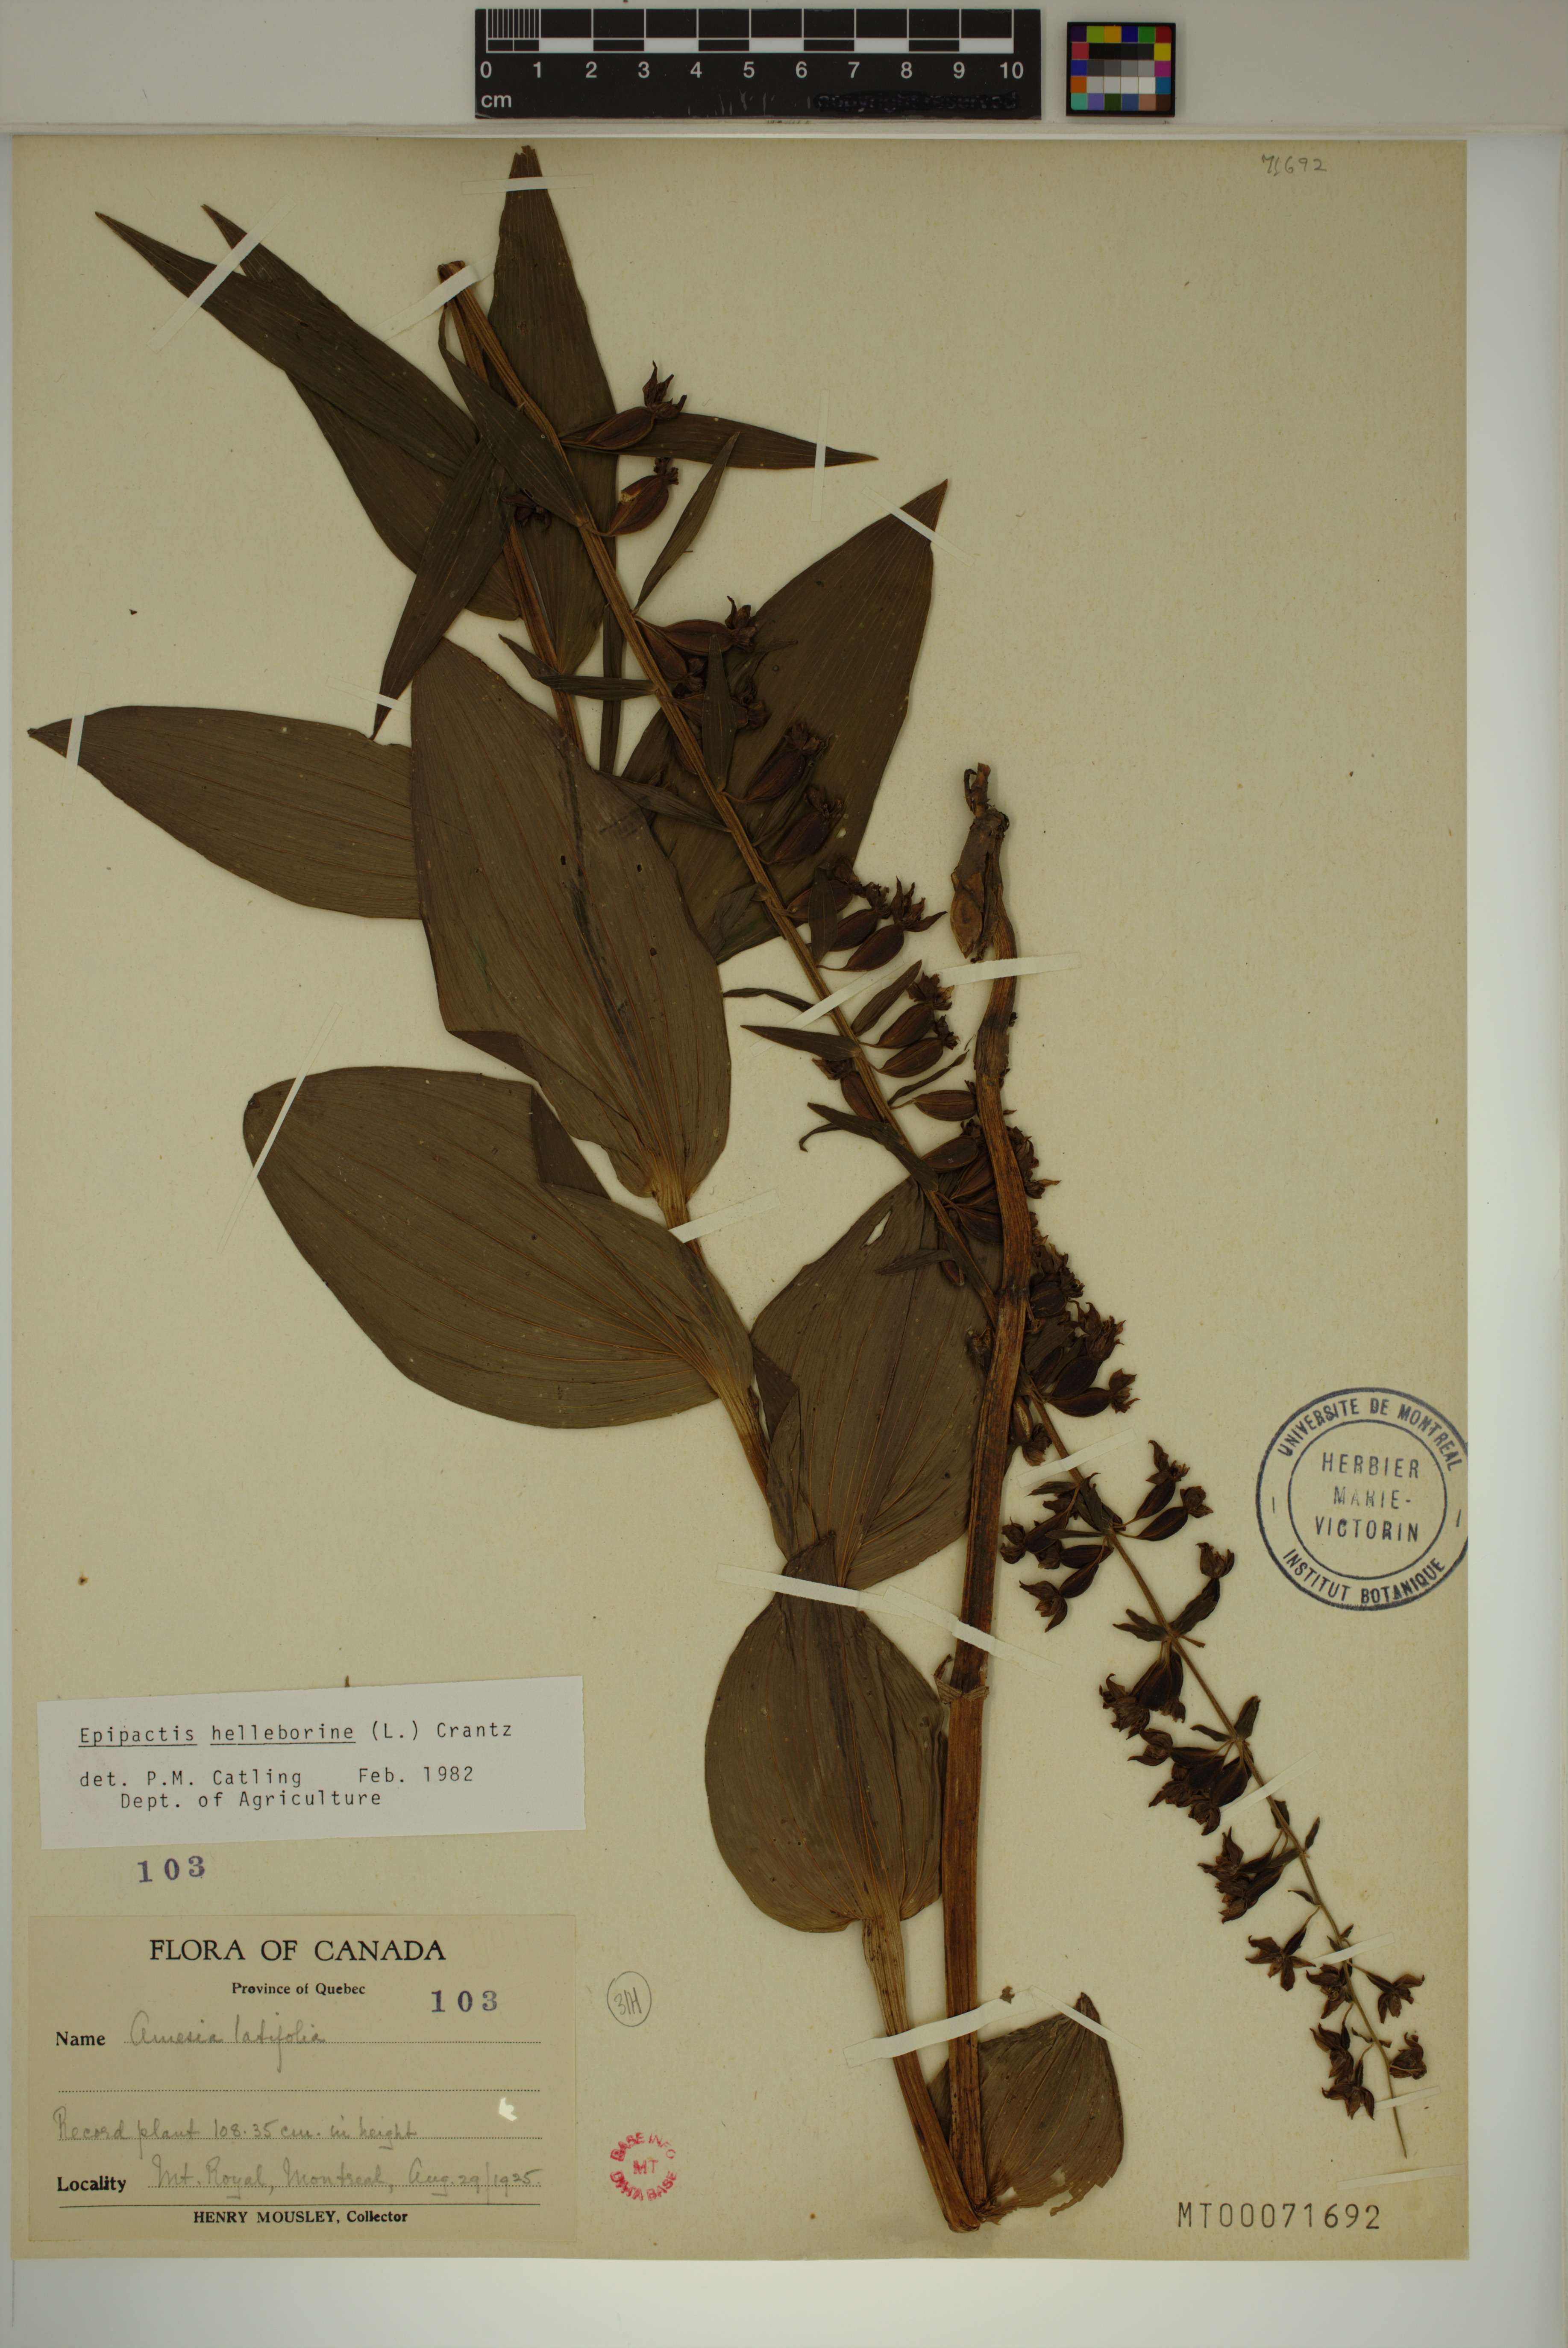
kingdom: Plantae
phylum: Tracheophyta
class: Liliopsida
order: Asparagales
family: Orchidaceae
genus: Epipactis
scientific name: Epipactis helleborine
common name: Broad-leaved helleborine
